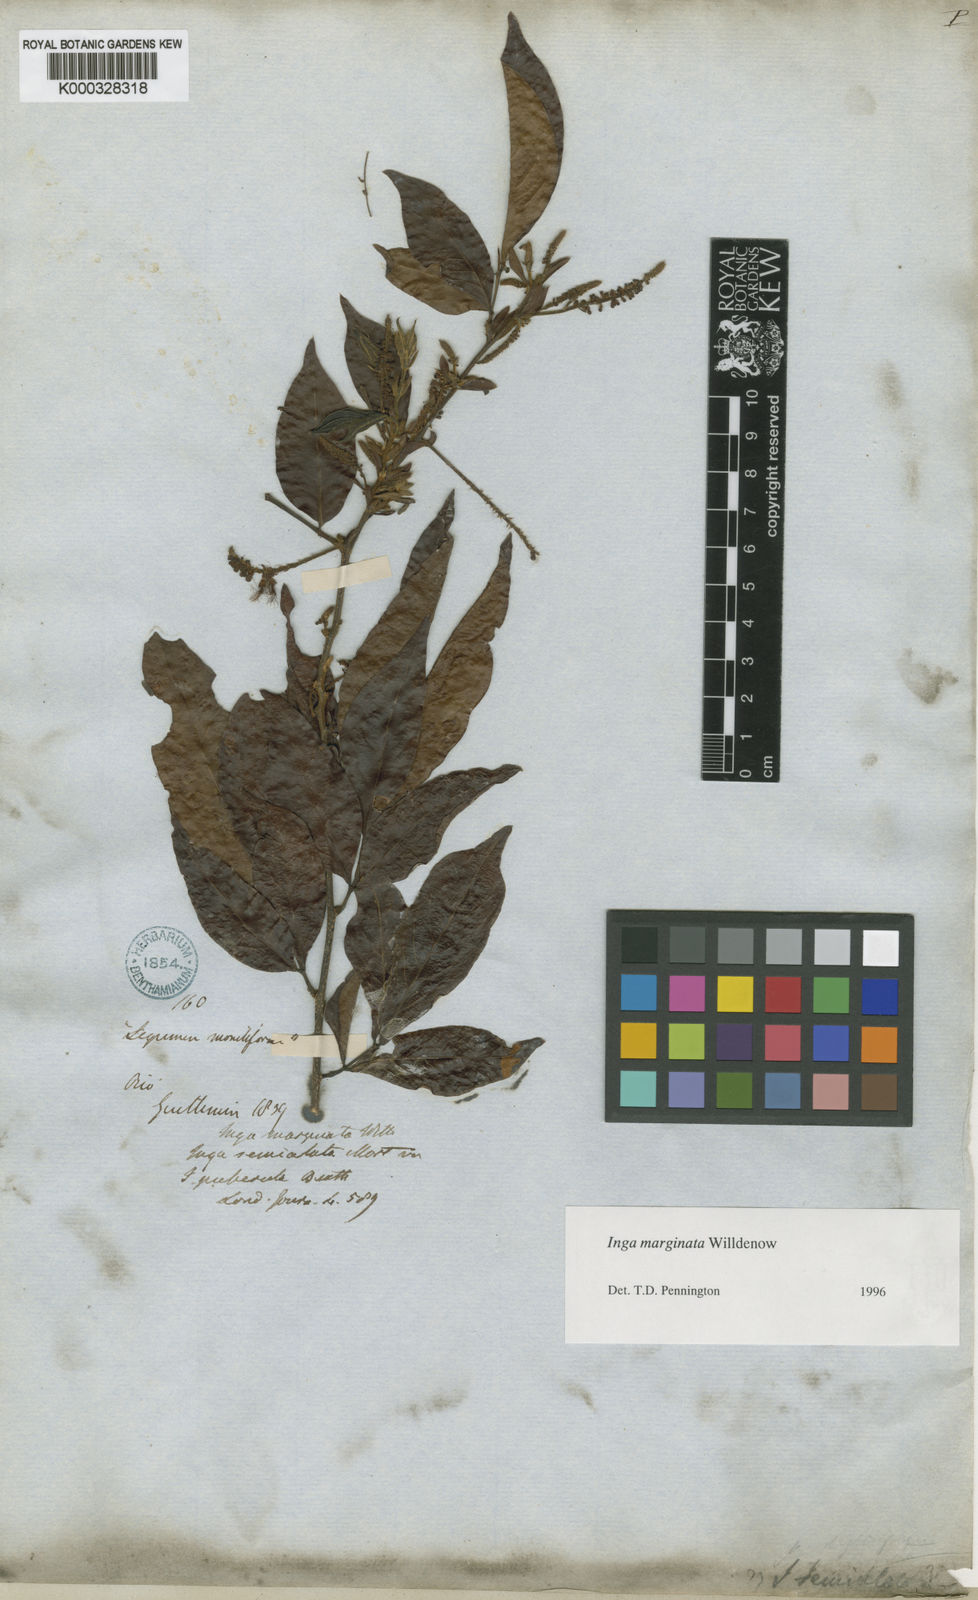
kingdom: Plantae
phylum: Tracheophyta
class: Magnoliopsida
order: Fabales
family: Fabaceae
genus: Inga
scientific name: Inga marginata
